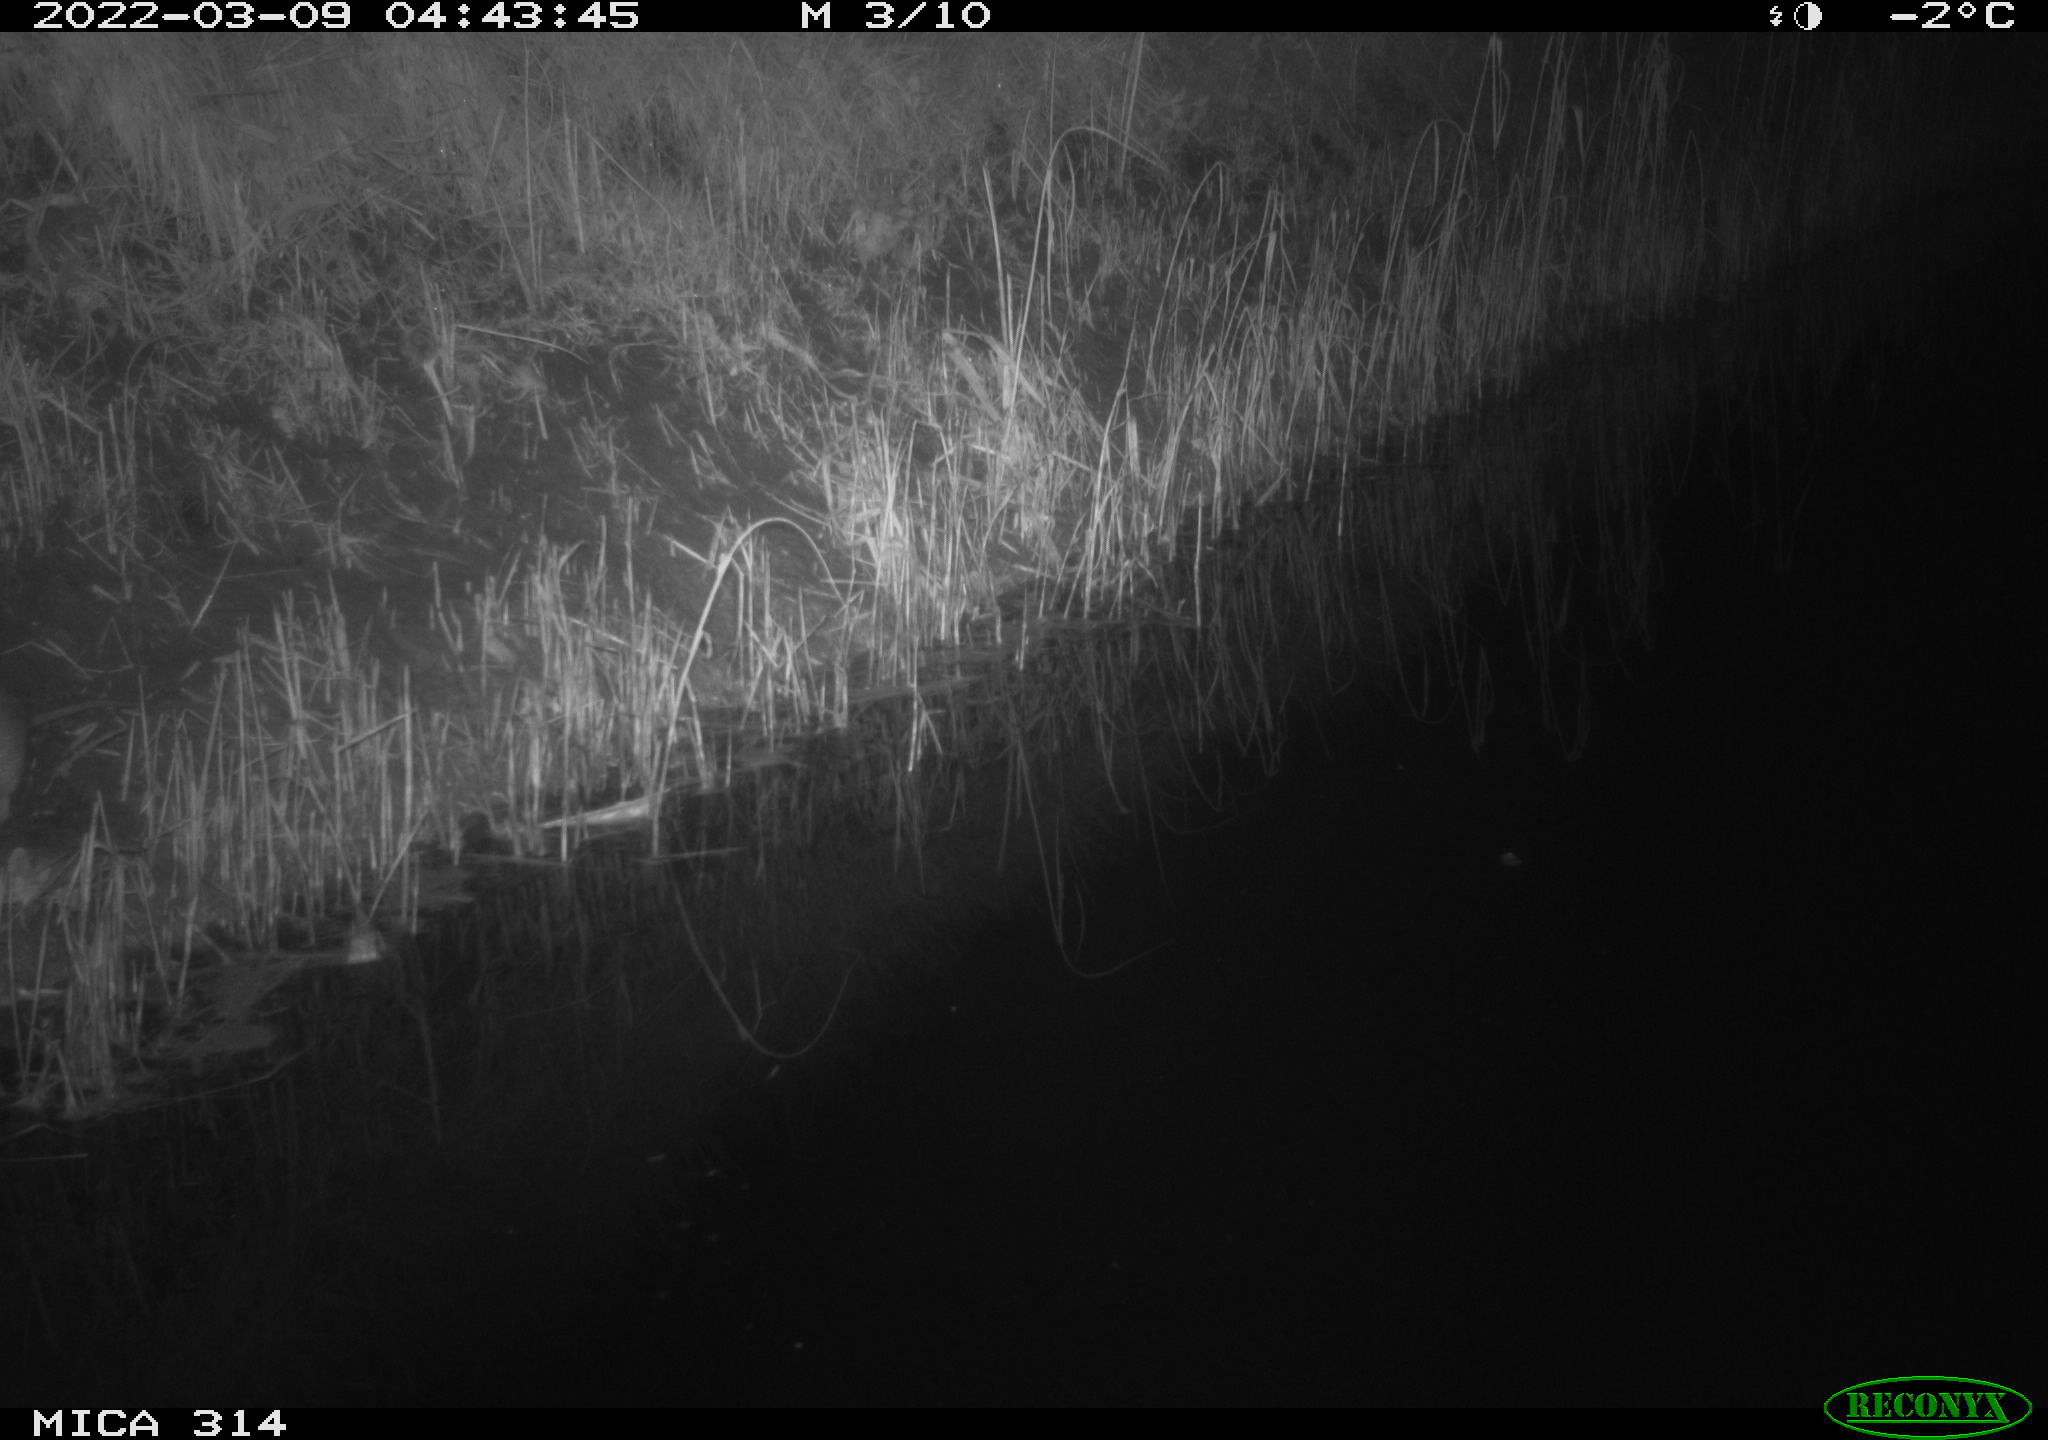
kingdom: Animalia
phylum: Chordata
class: Mammalia
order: Rodentia
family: Muridae
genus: Rattus
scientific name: Rattus norvegicus
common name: Brown rat
